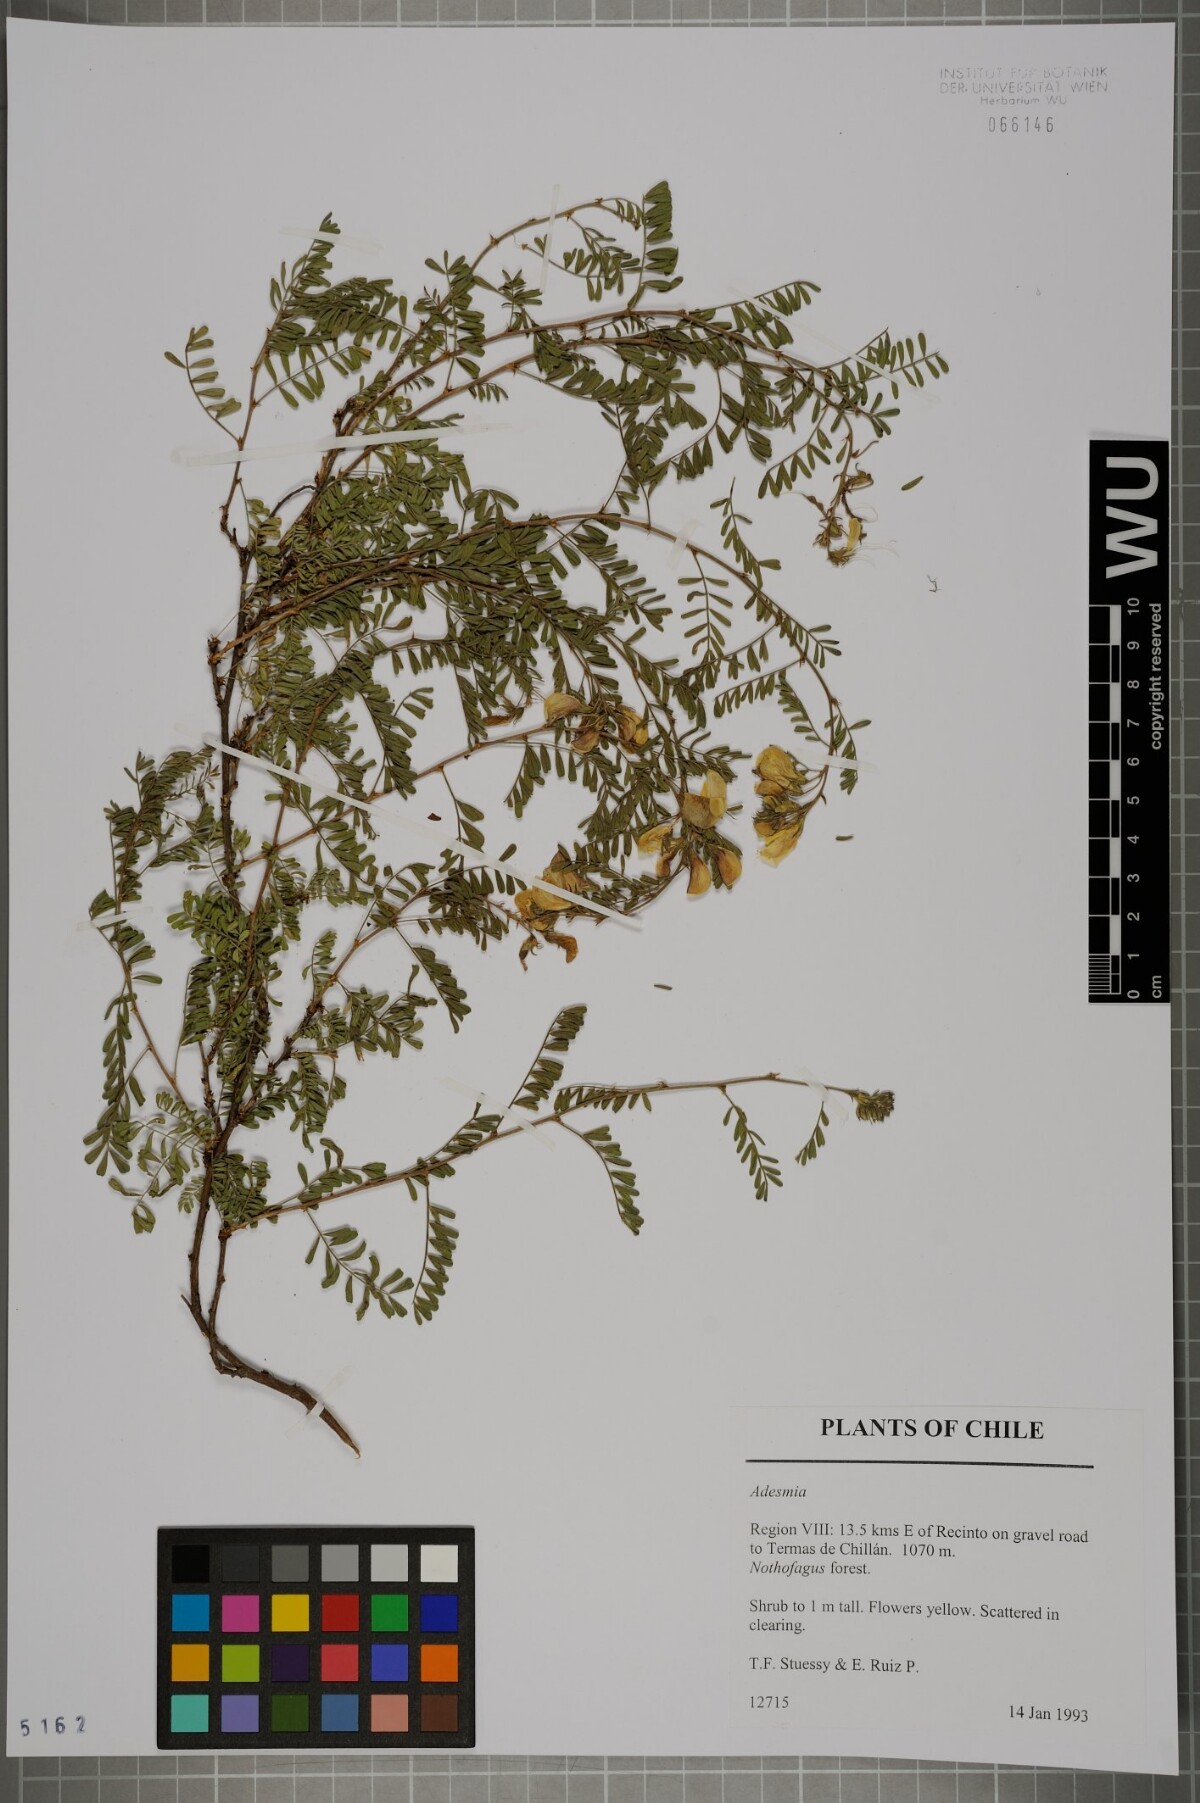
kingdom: Plantae
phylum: Tracheophyta
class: Magnoliopsida
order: Fabales
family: Fabaceae
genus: Adesmia
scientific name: Adesmia
